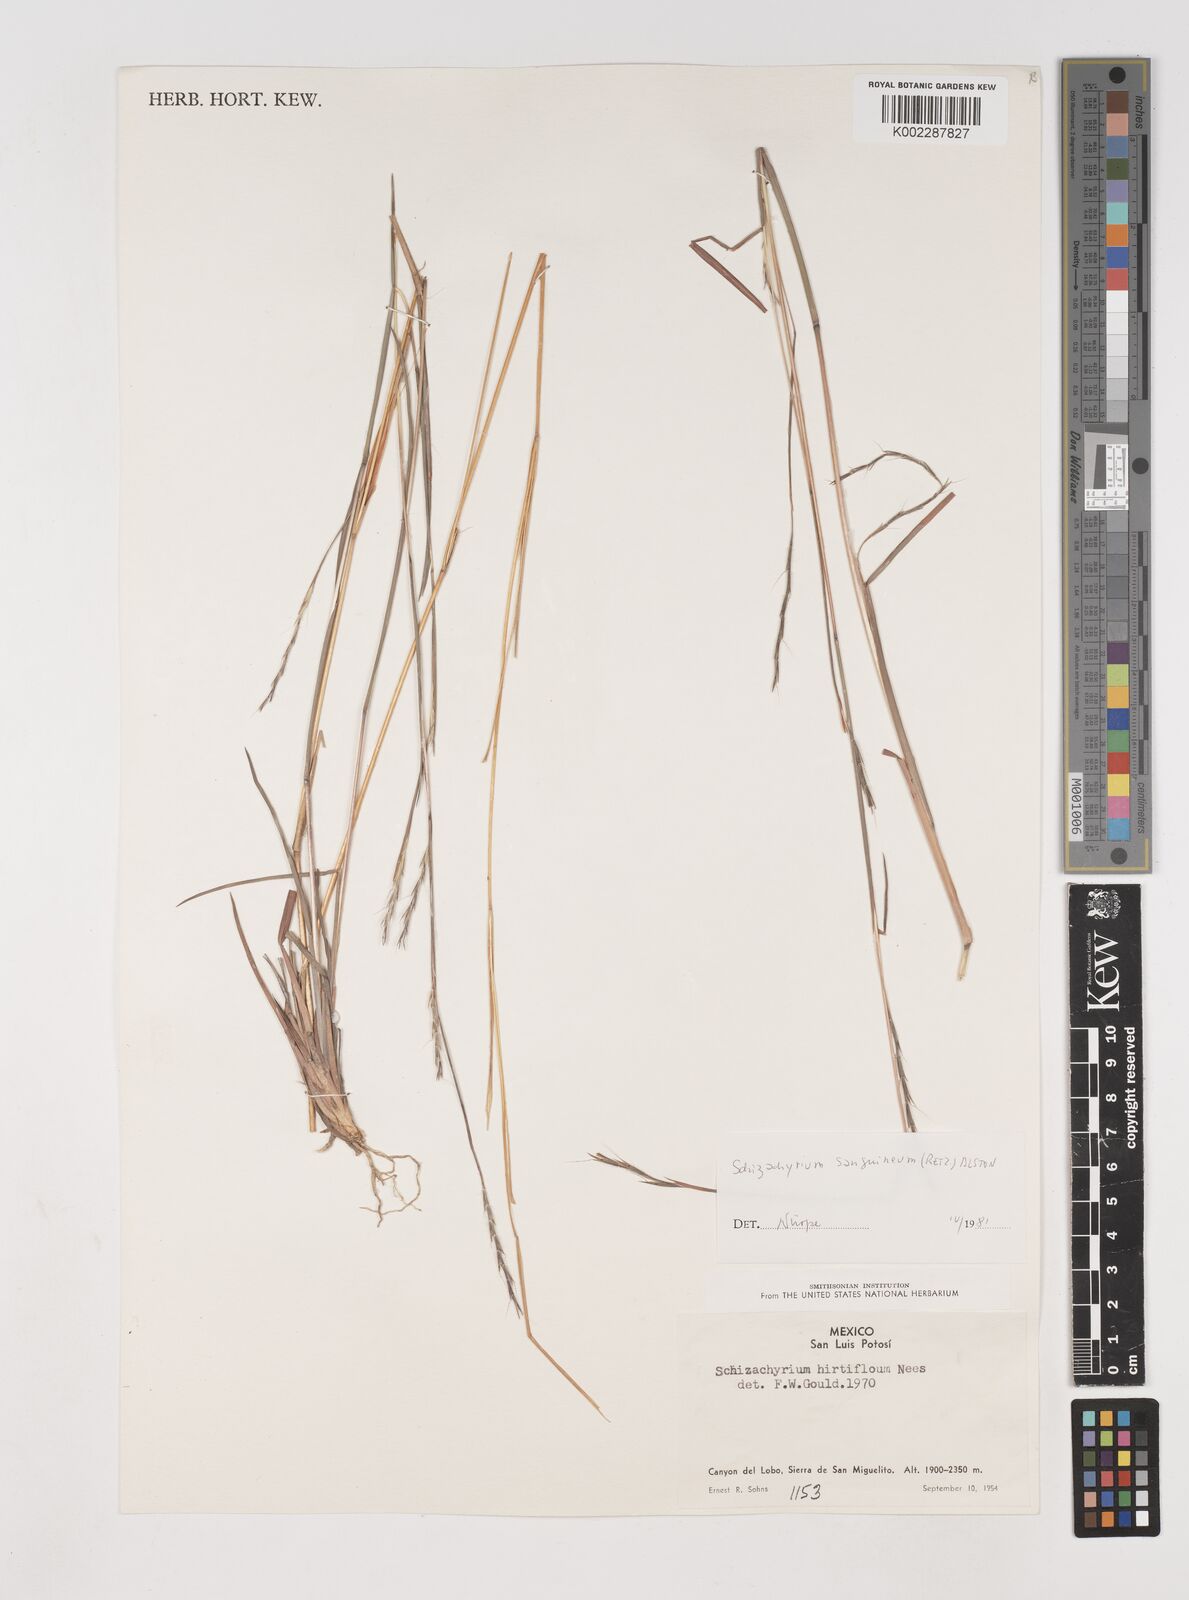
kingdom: Plantae
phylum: Tracheophyta
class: Liliopsida
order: Poales
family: Poaceae
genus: Schizachyrium
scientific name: Schizachyrium sanguineum
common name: Crimson bluestem
